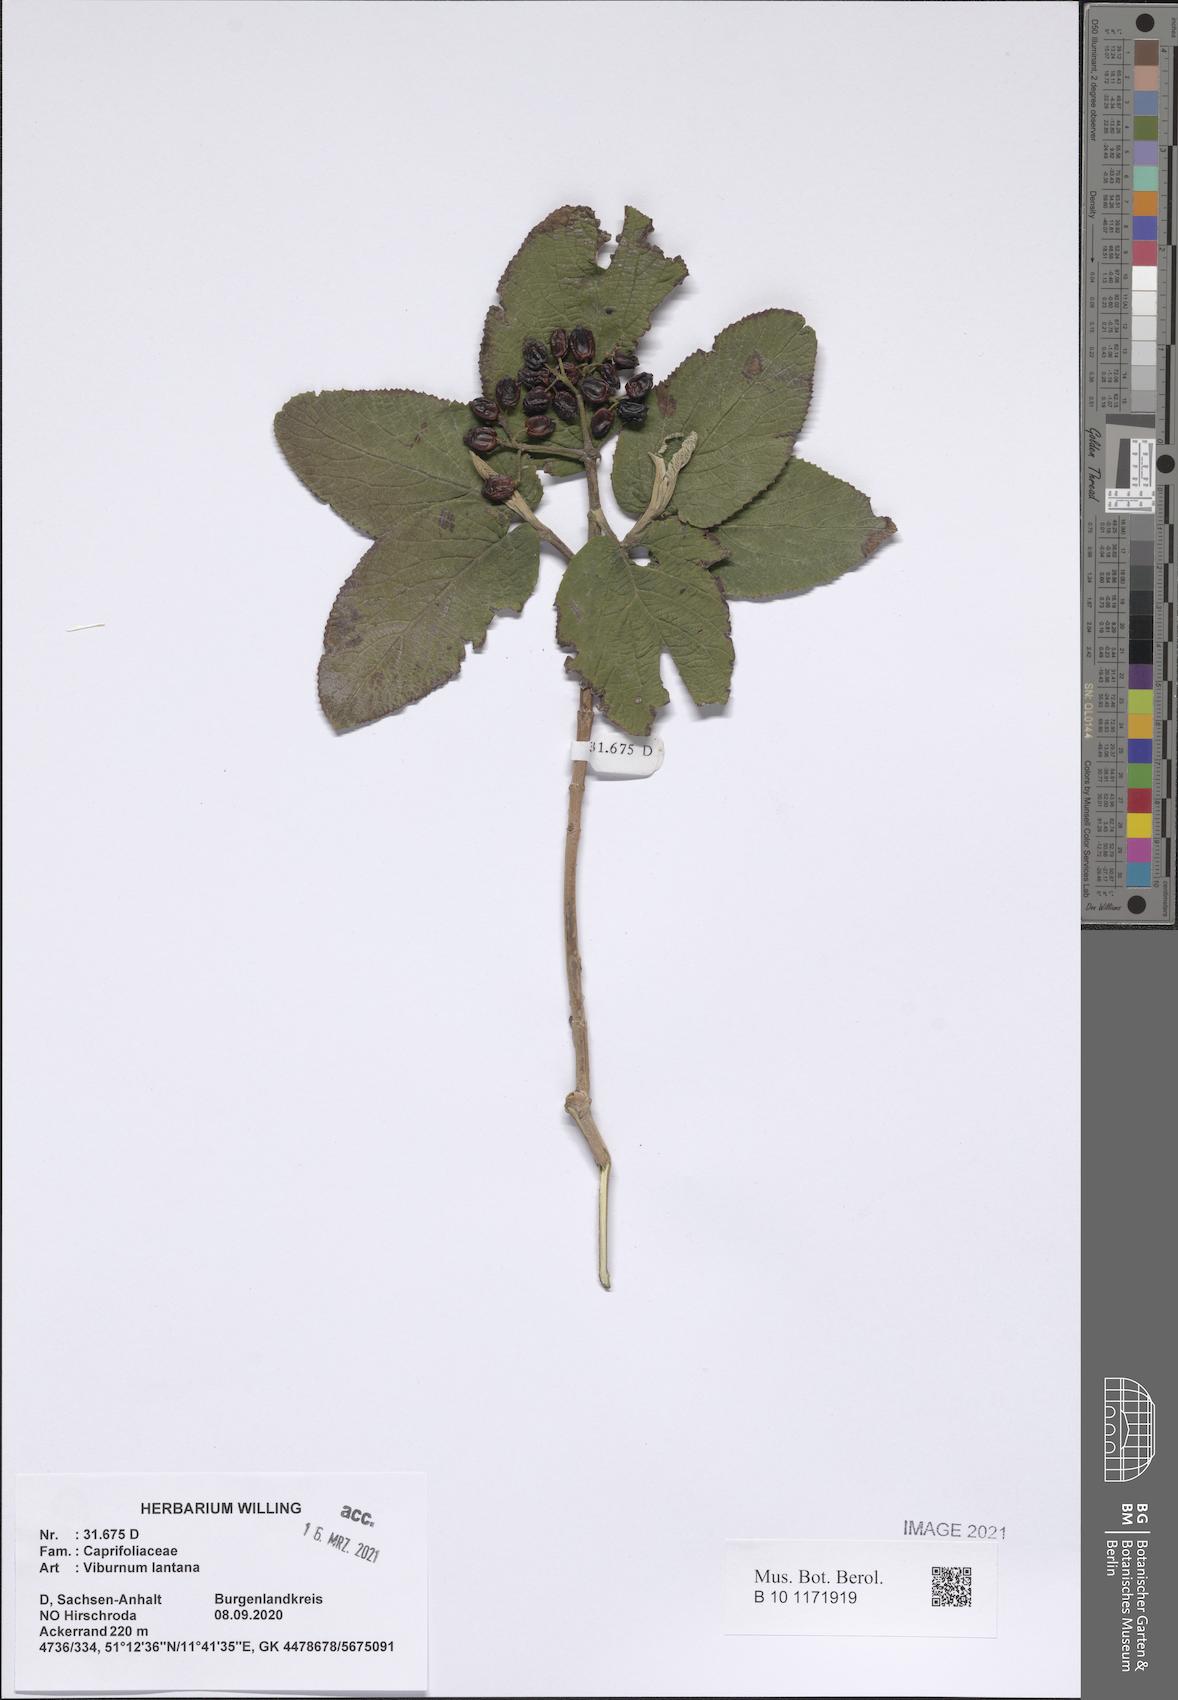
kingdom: Plantae
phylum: Tracheophyta
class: Magnoliopsida
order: Dipsacales
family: Viburnaceae
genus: Viburnum
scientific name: Viburnum lantana
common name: Wayfaring tree
